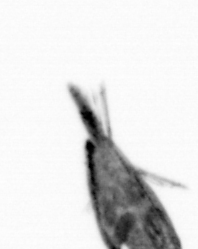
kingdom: Animalia
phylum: Arthropoda
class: Maxillopoda
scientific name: Maxillopoda
